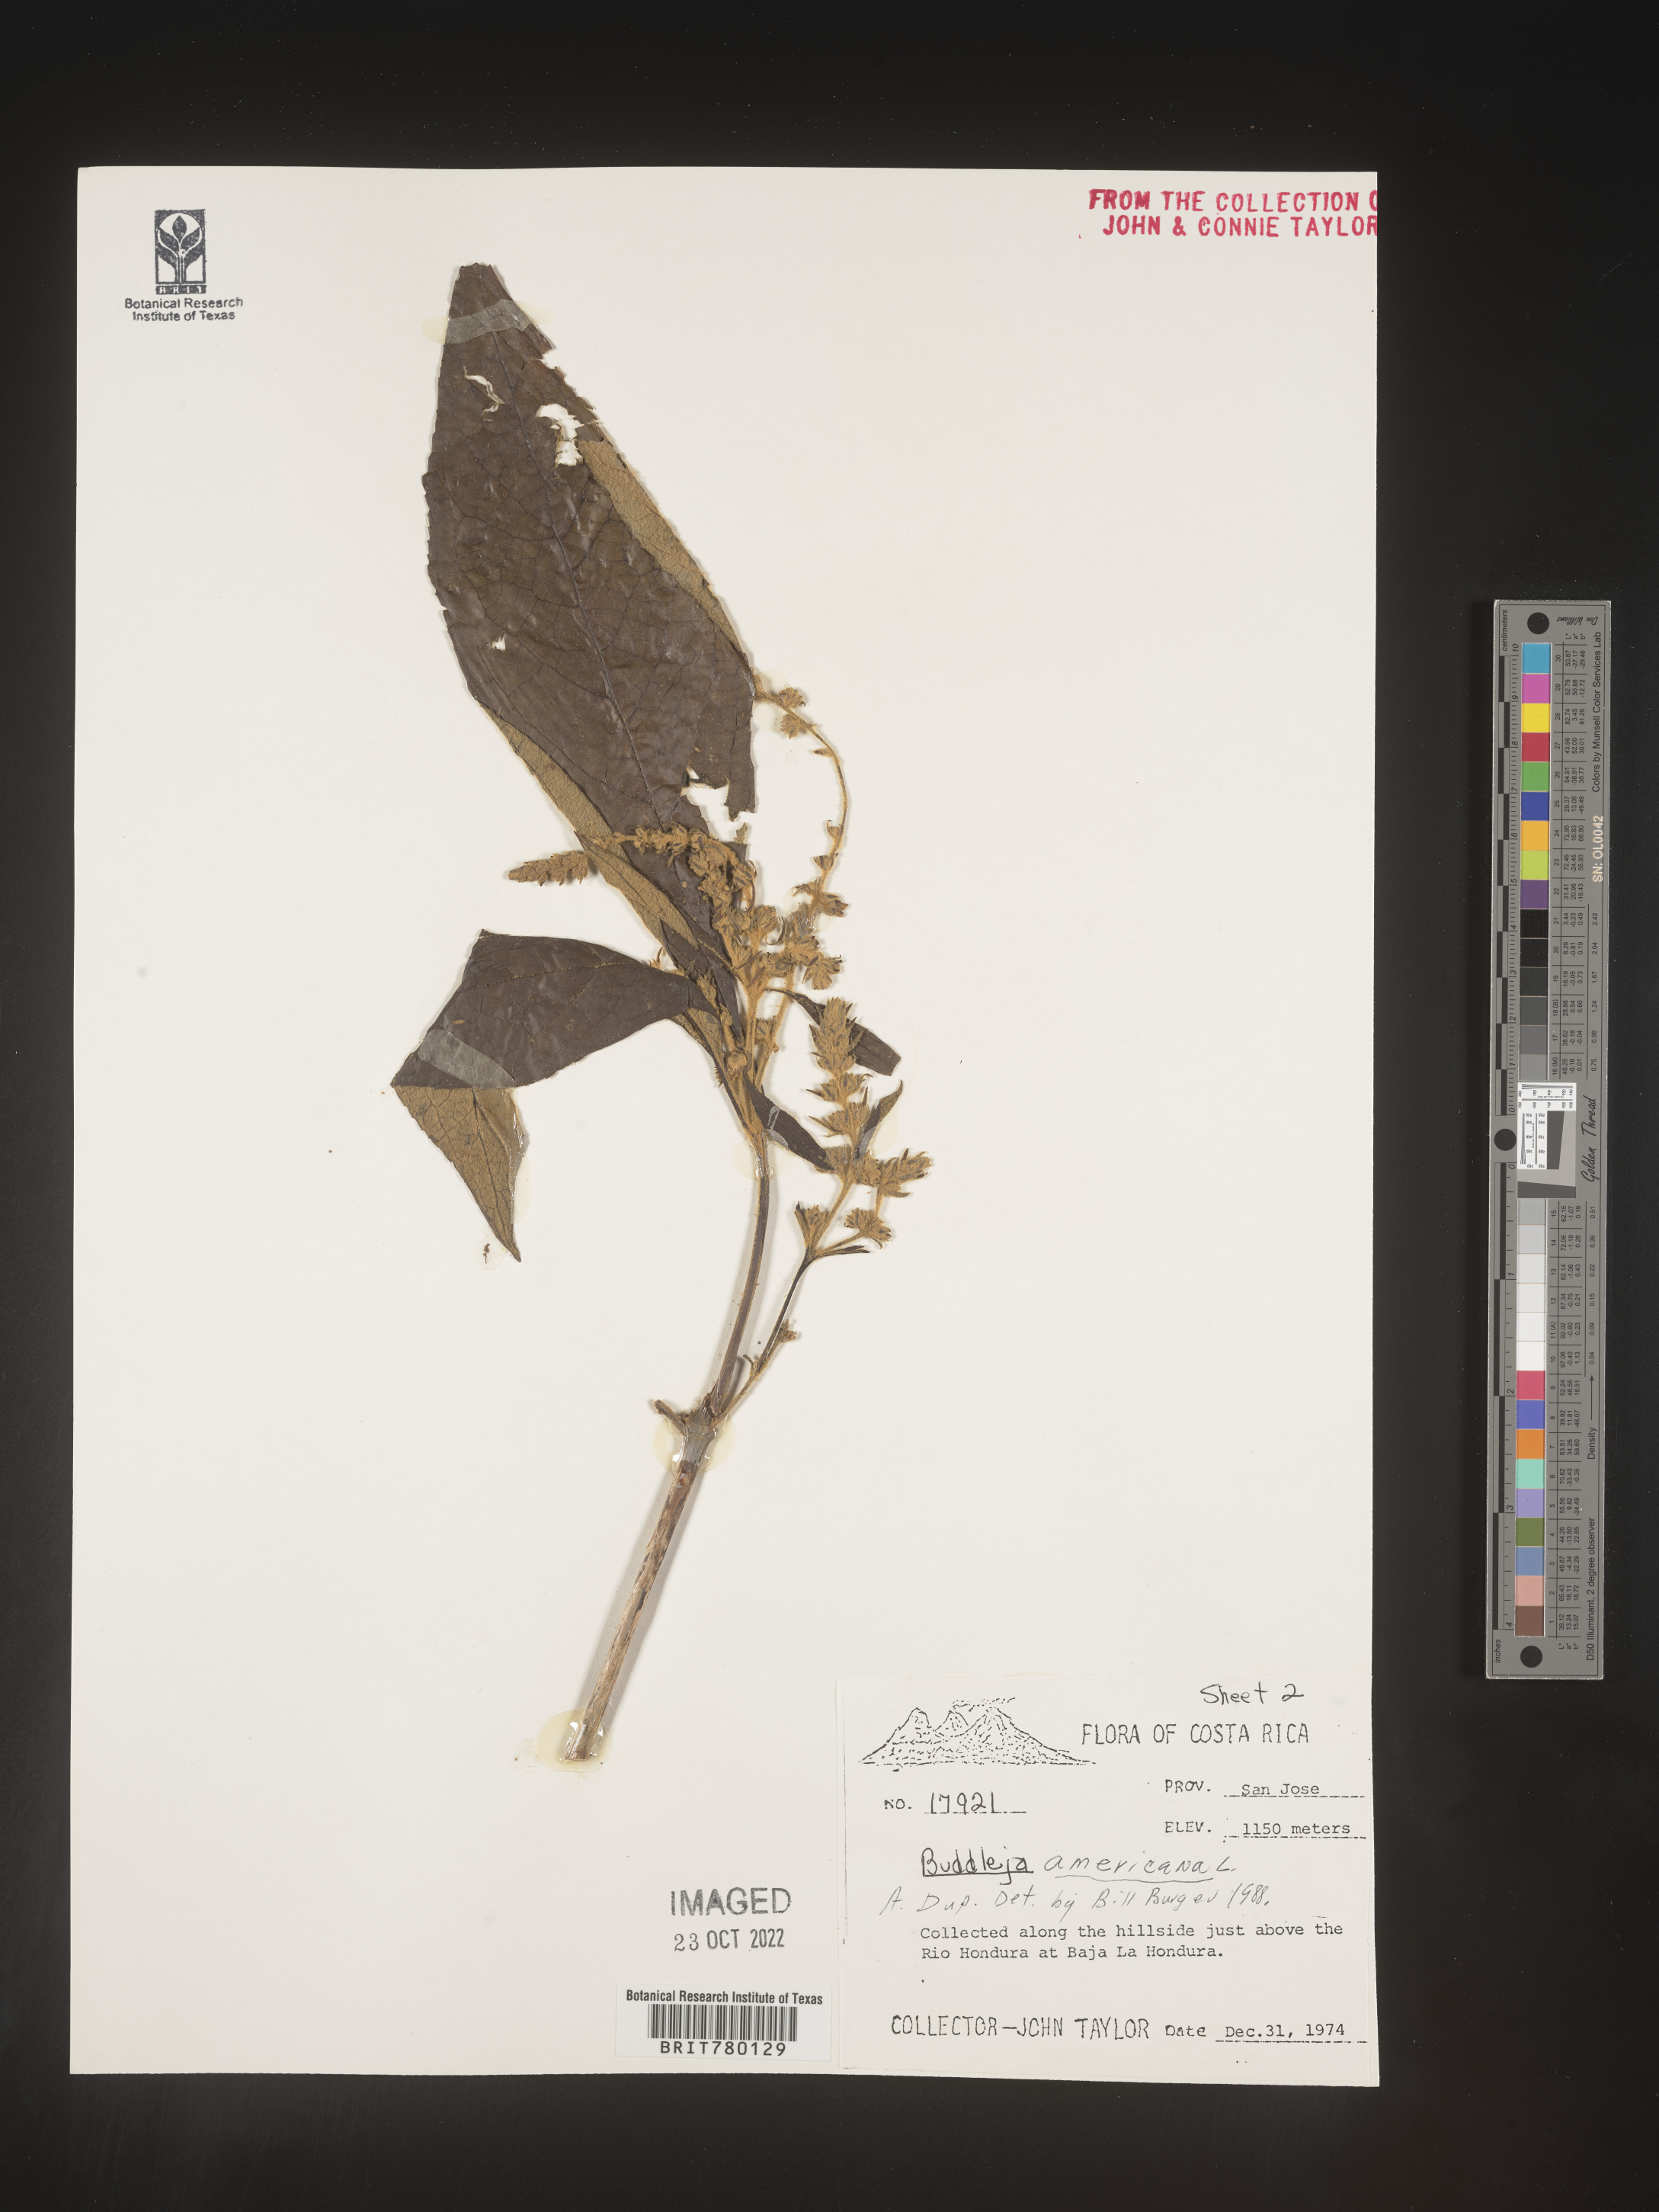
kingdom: Plantae
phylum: Tracheophyta
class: Magnoliopsida
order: Lamiales
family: Scrophulariaceae
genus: Buddleja
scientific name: Buddleja
